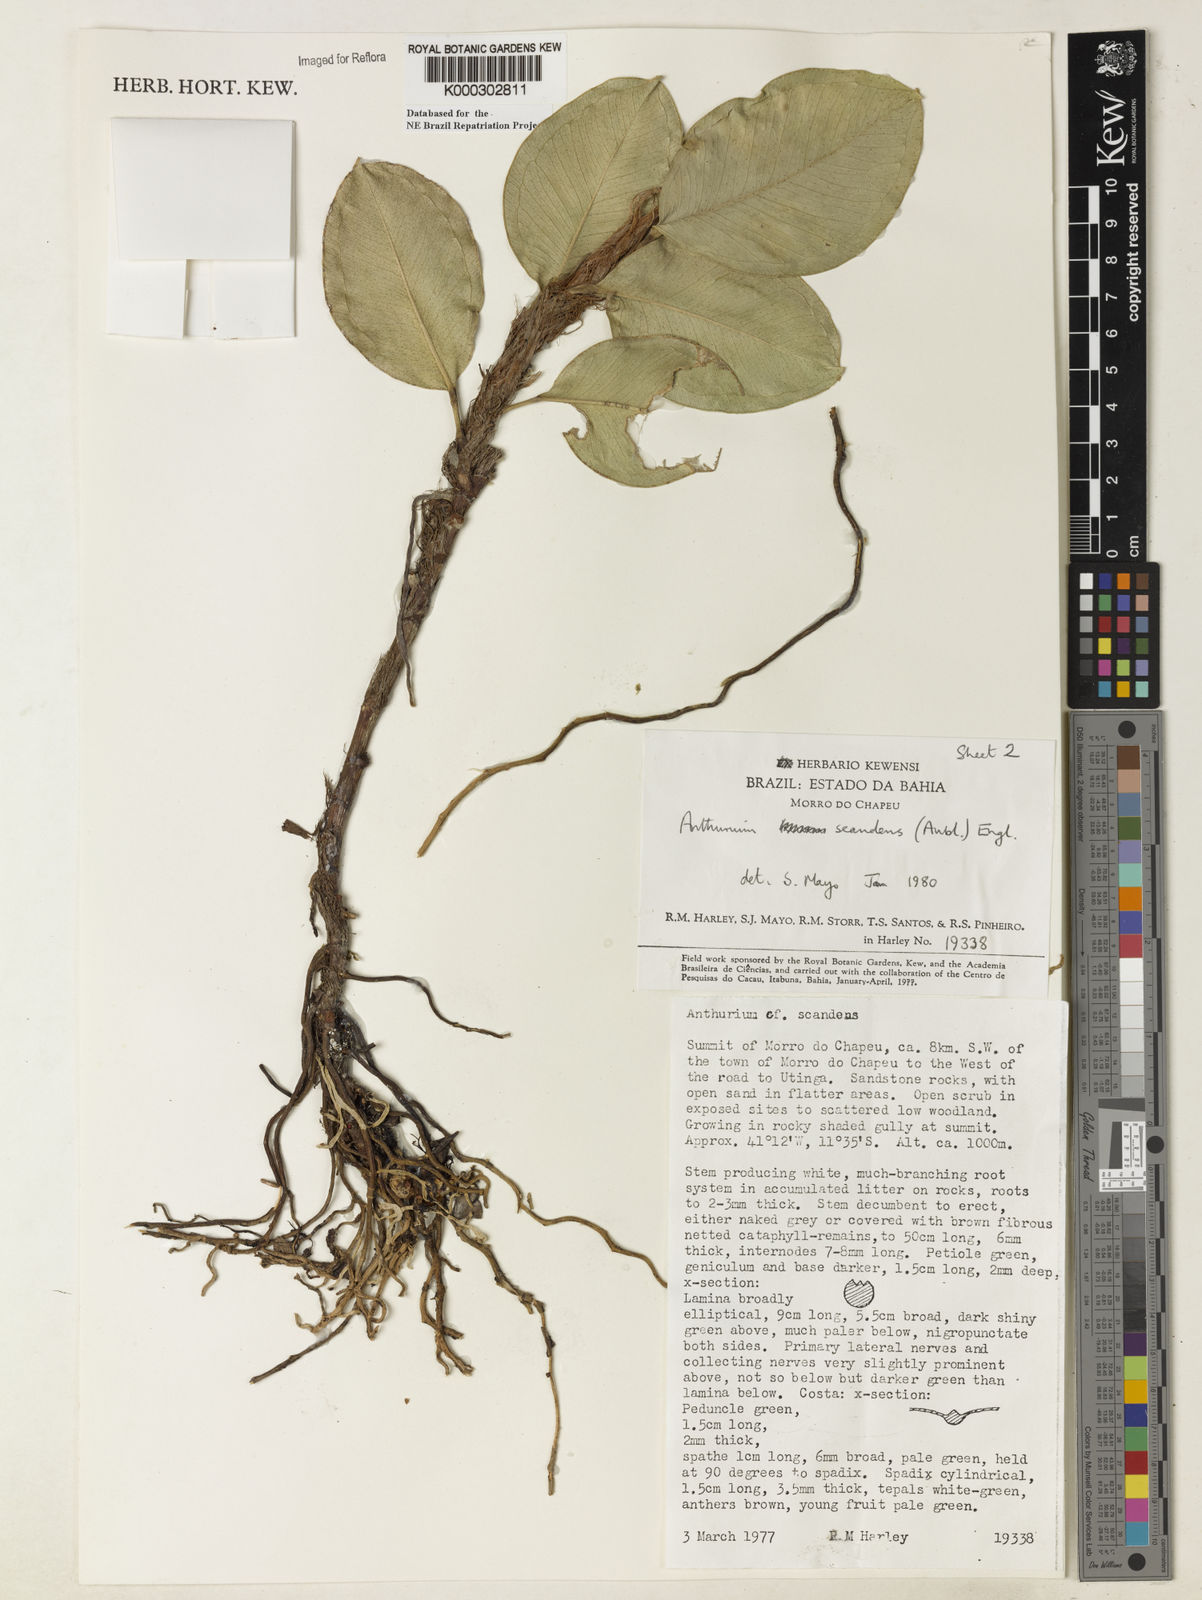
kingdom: Plantae
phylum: Tracheophyta
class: Liliopsida
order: Alismatales
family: Araceae
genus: Anthurium
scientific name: Anthurium scandens
